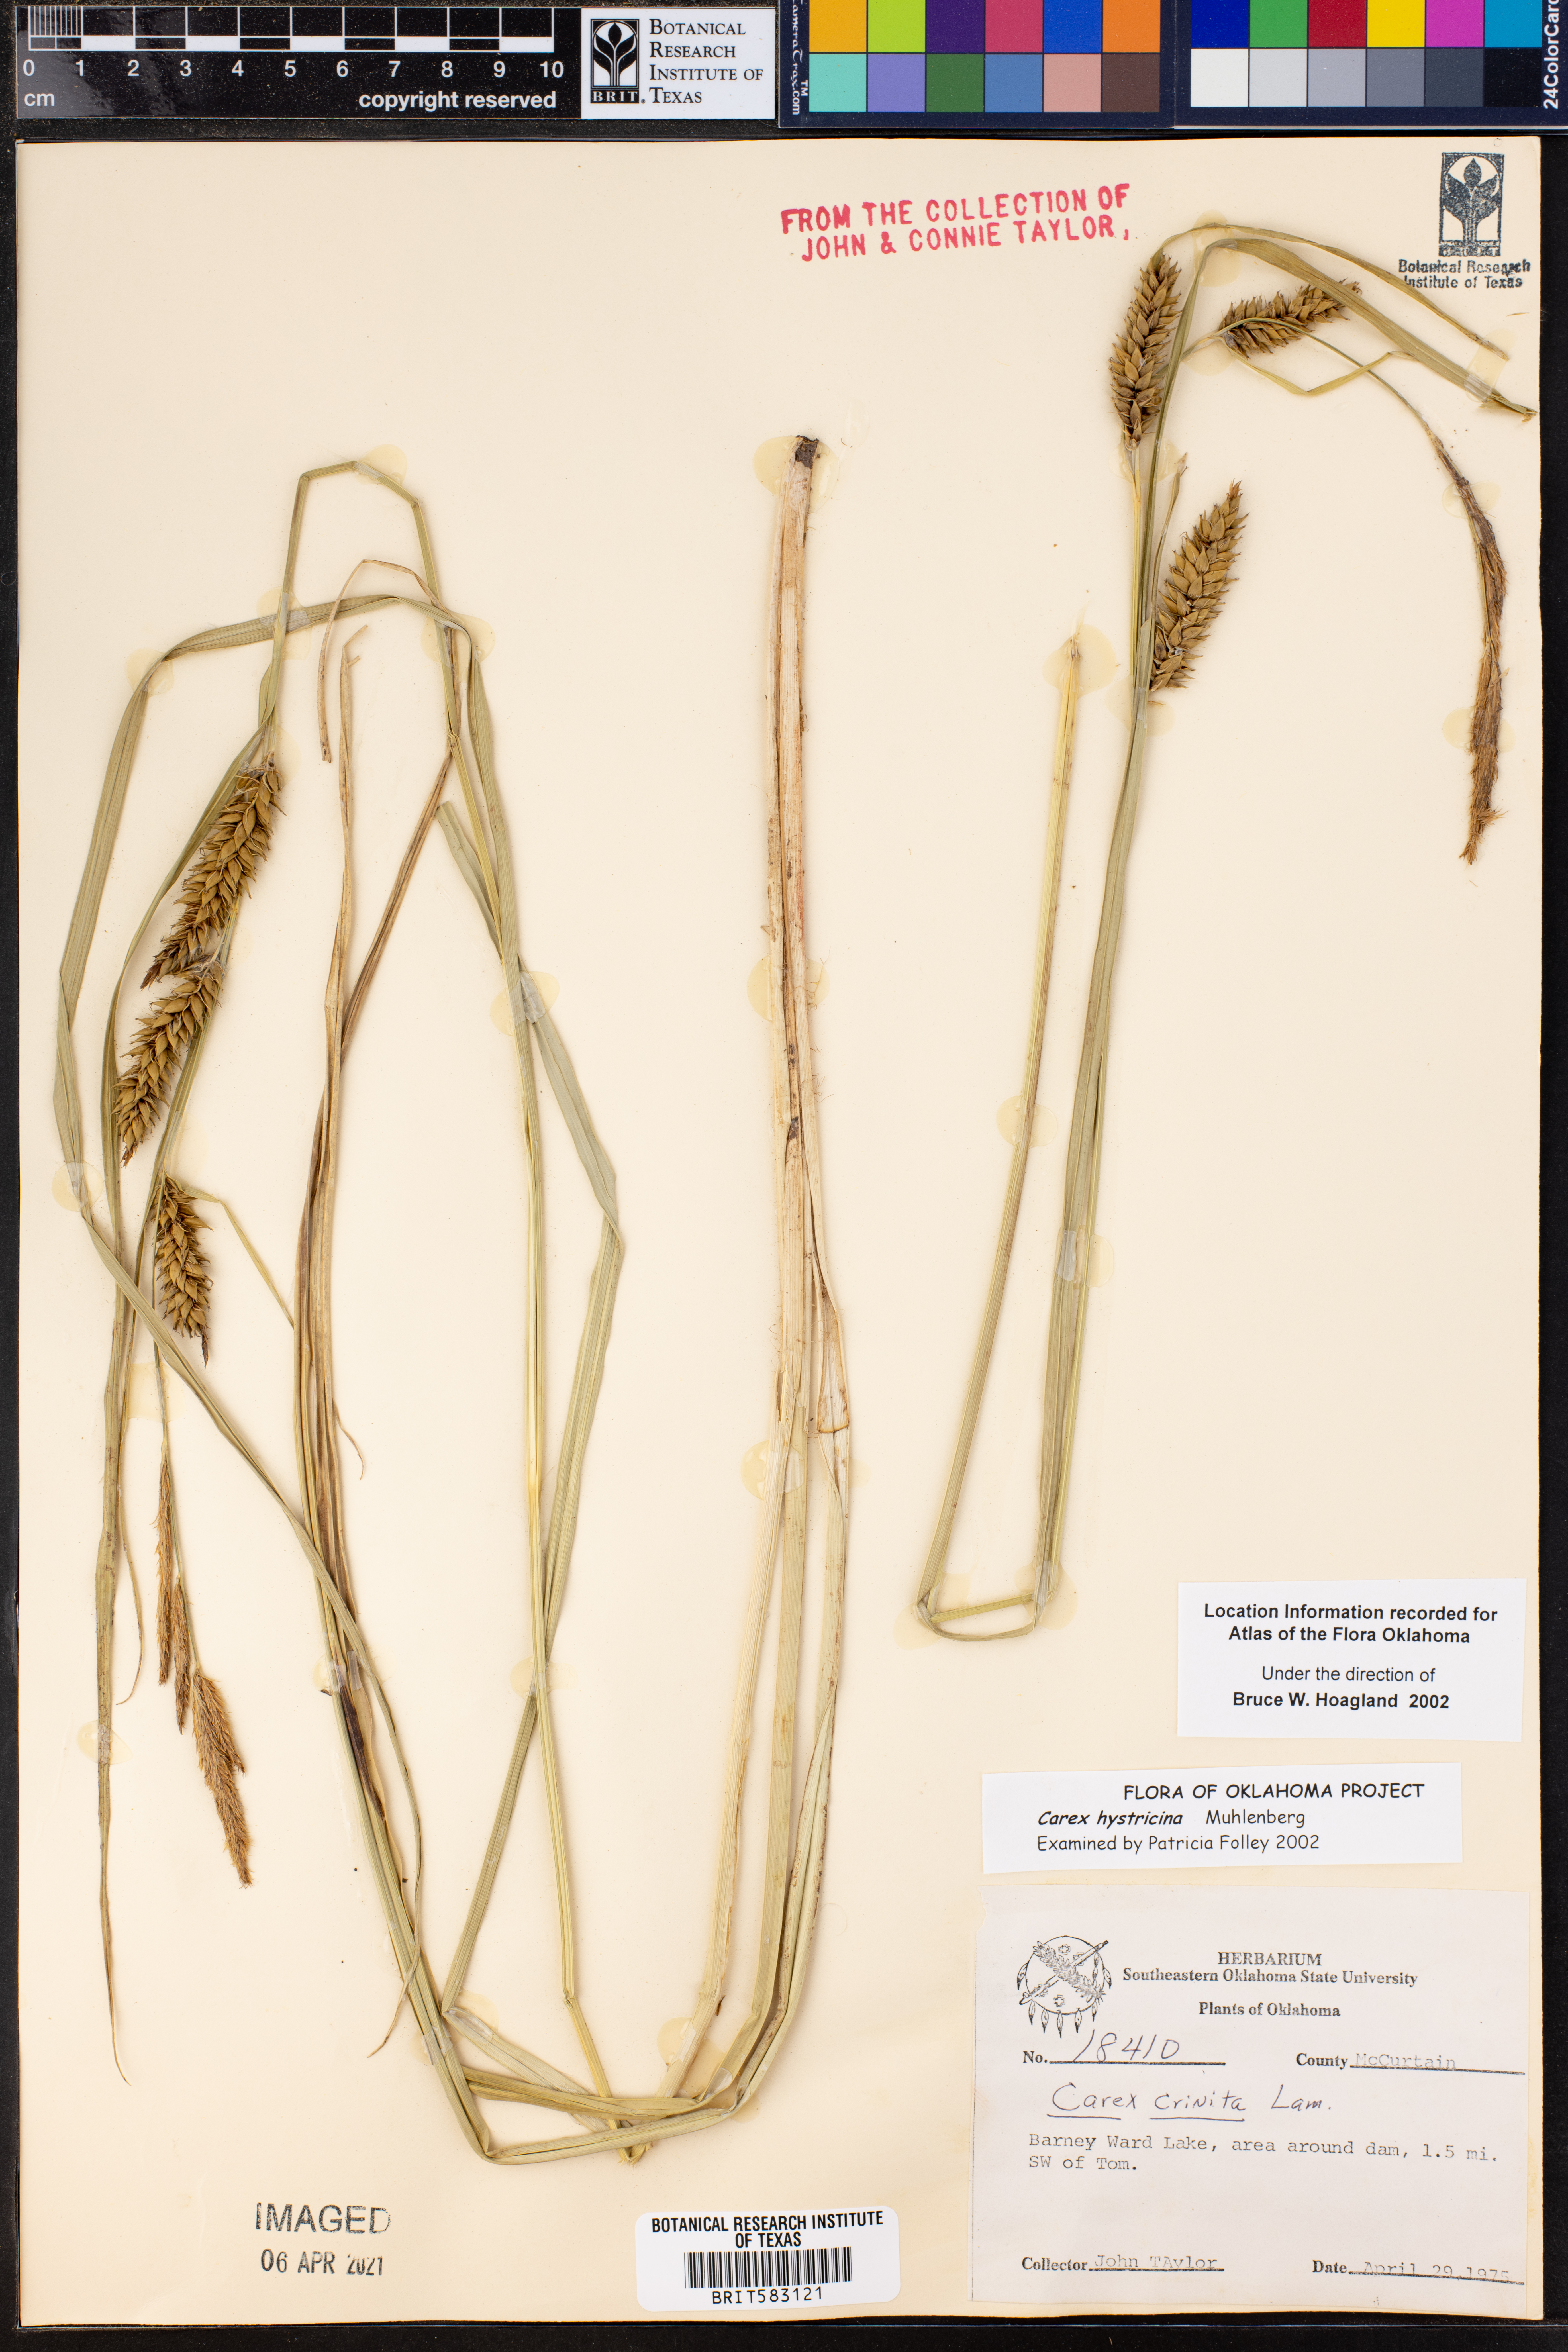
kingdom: Plantae
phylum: Tracheophyta
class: Liliopsida
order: Poales
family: Cyperaceae
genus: Carex
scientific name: Carex hystericina
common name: Bottlebrush sedge
